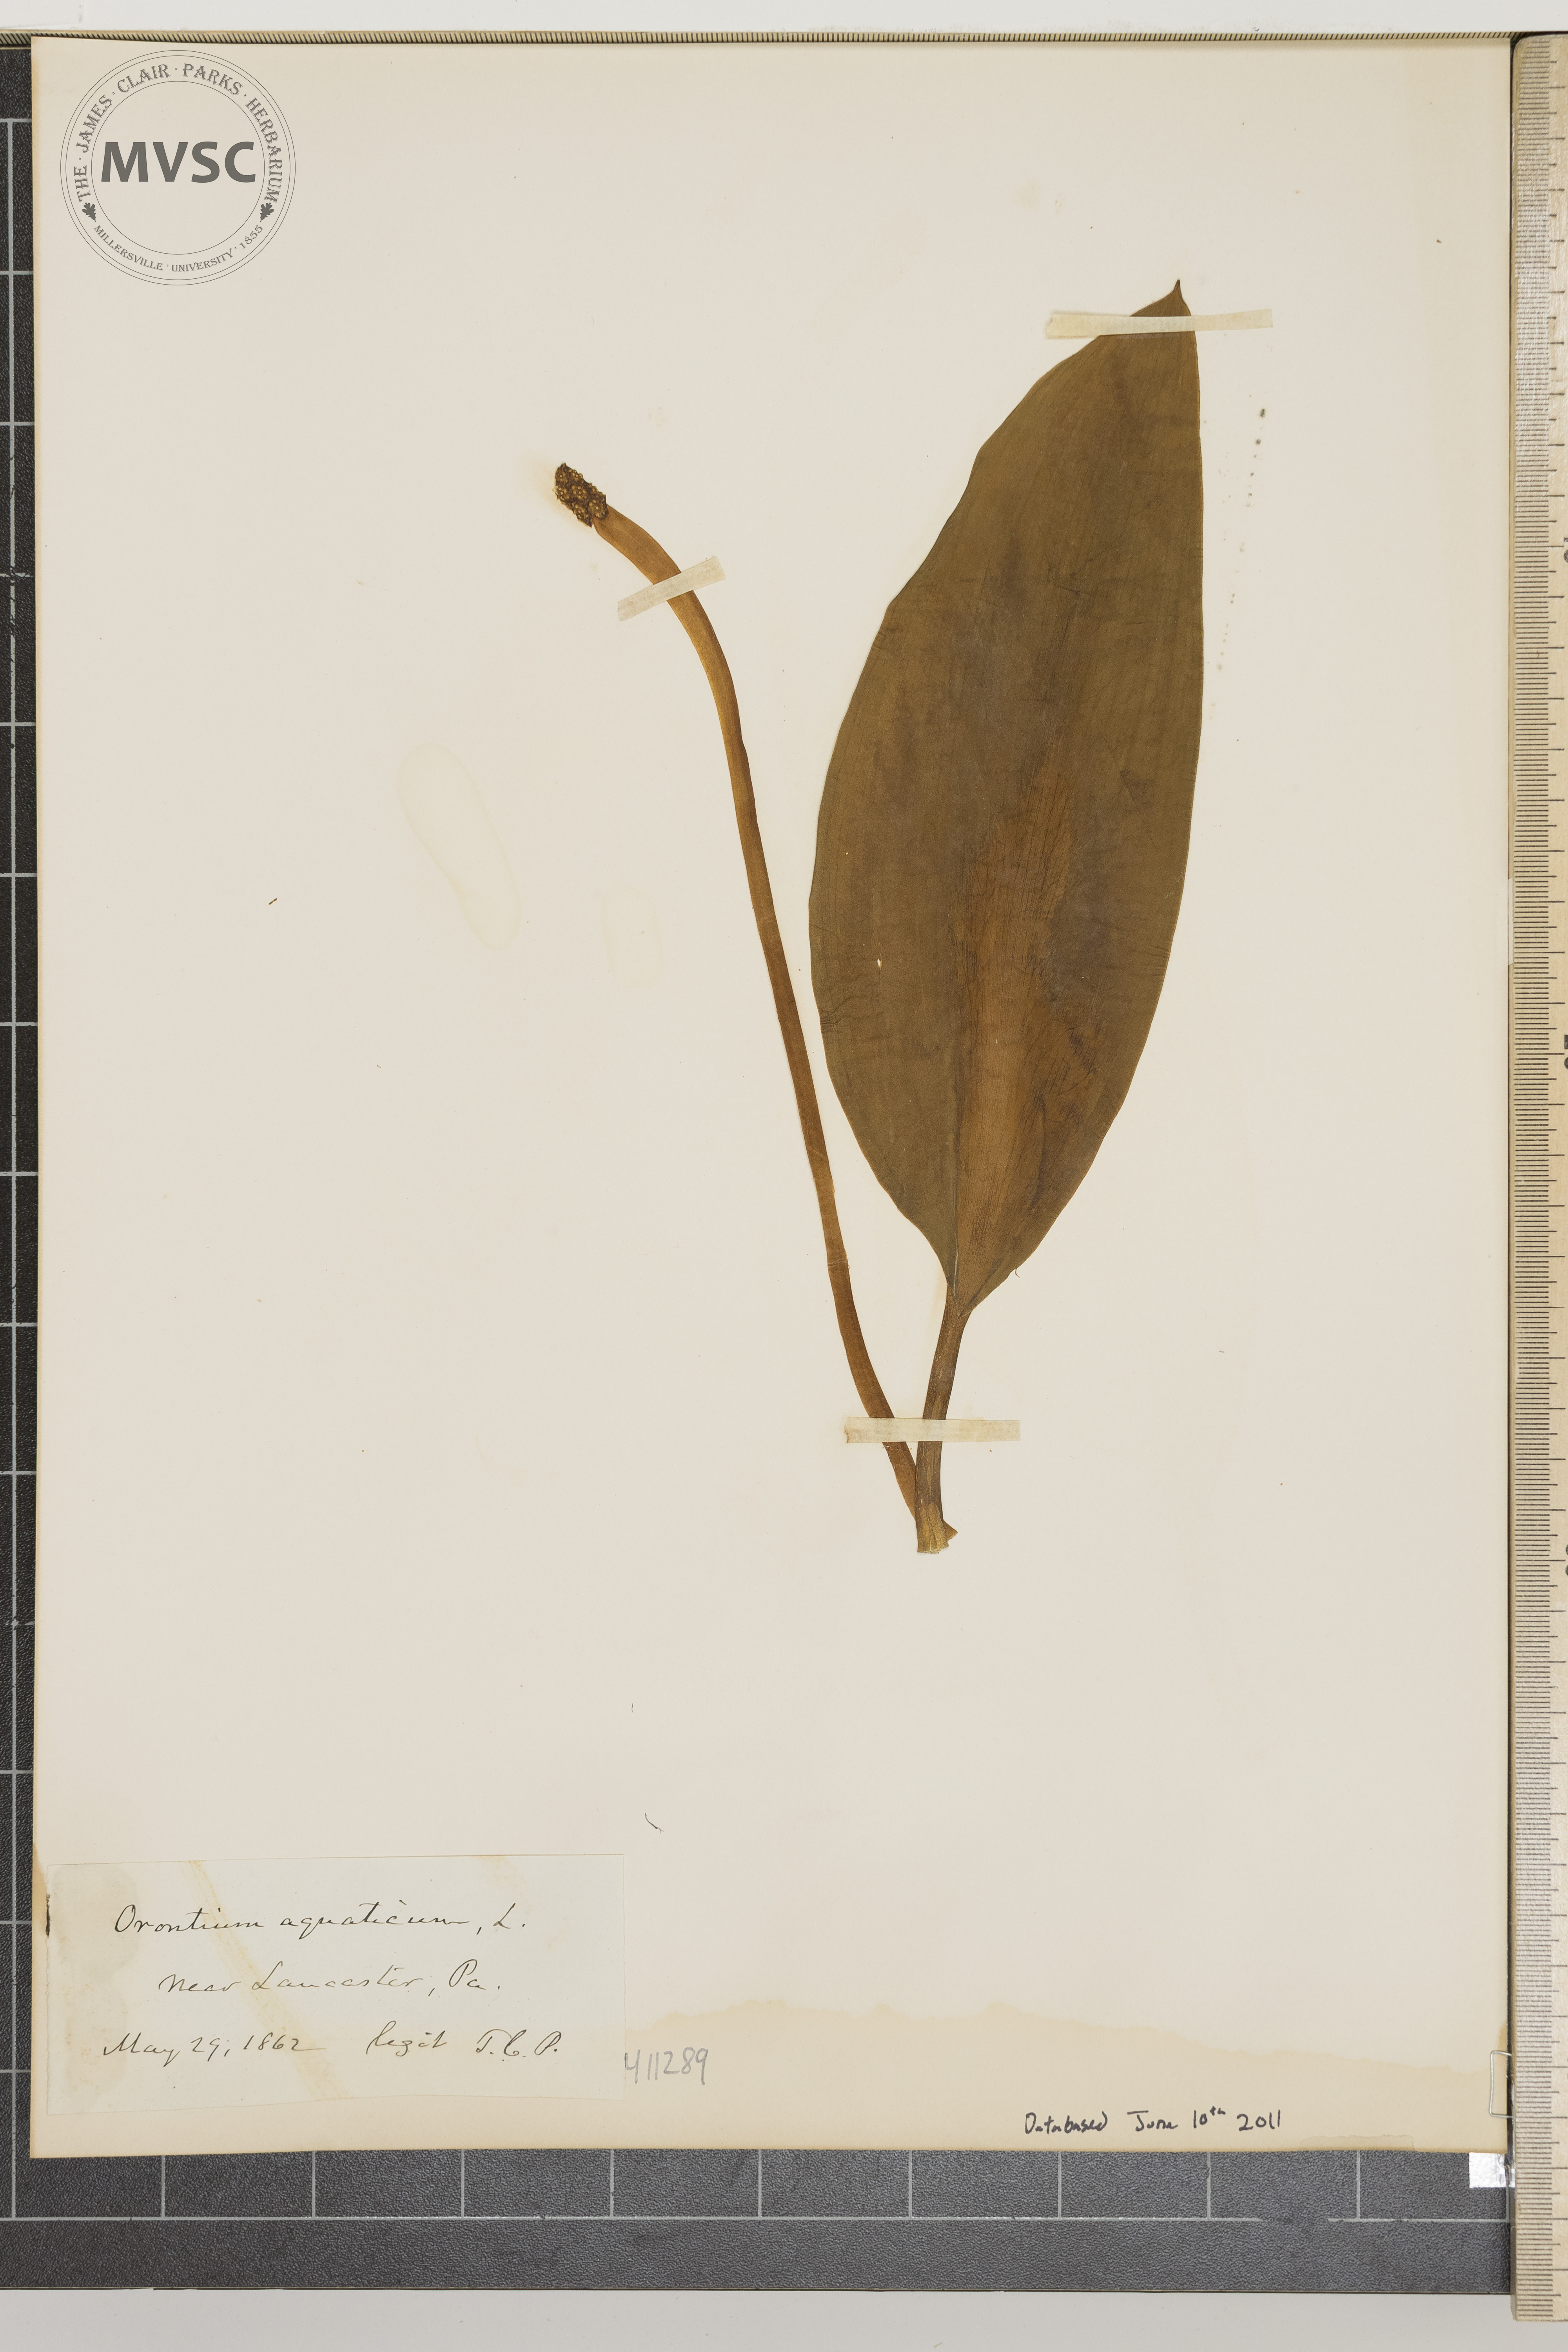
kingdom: Plantae
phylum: Tracheophyta
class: Liliopsida
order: Alismatales
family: Araceae
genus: Orontium
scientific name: Orontium aquaticum
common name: Golden-club
